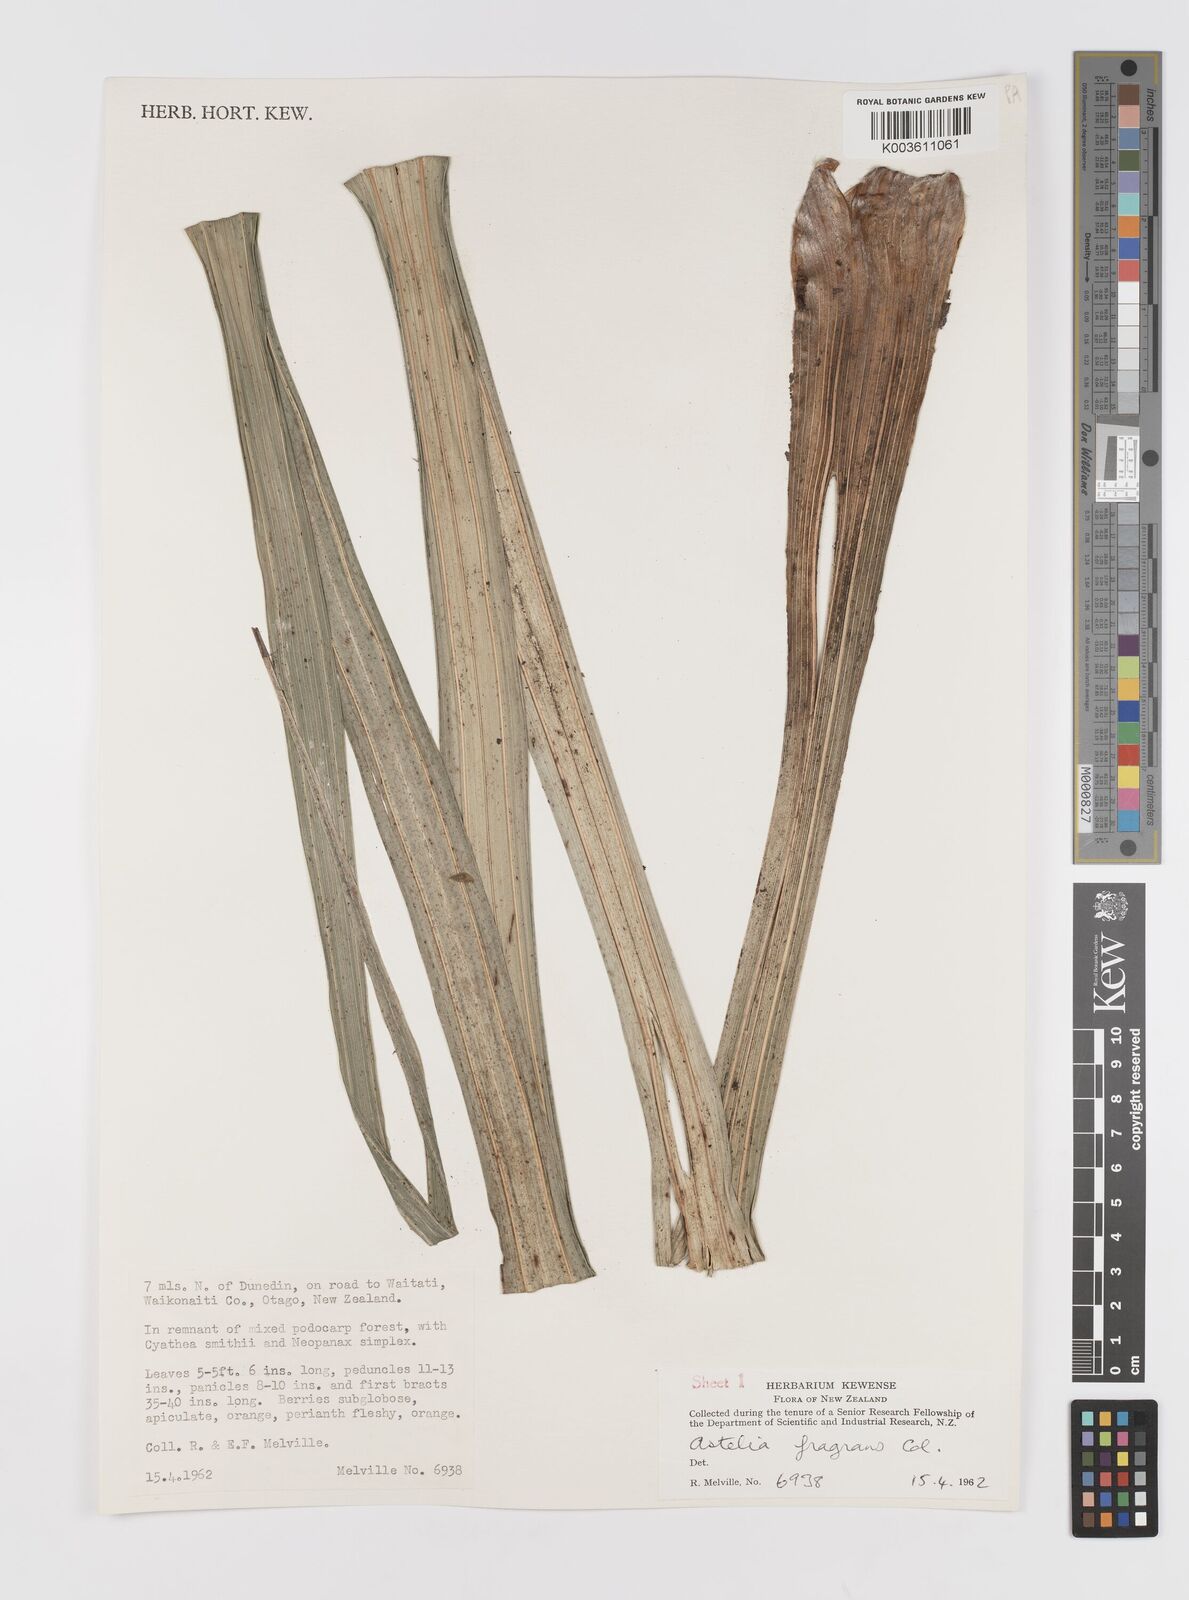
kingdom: Plantae
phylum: Tracheophyta
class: Liliopsida
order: Asparagales
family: Asteliaceae
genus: Astelia
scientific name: Astelia fragrans
